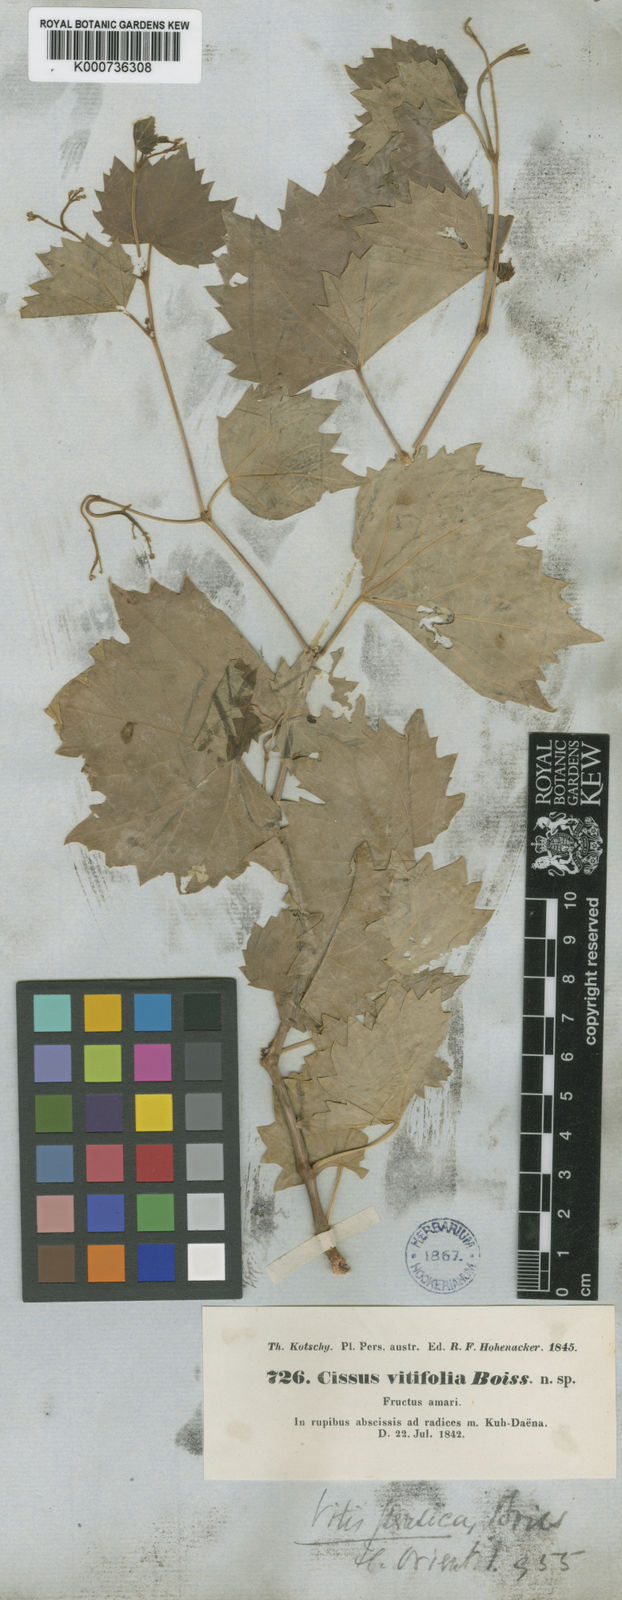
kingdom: Plantae
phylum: Tracheophyta
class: Magnoliopsida
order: Vitales
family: Vitaceae
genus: Ampelopsis
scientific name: Ampelopsis vitifolia
